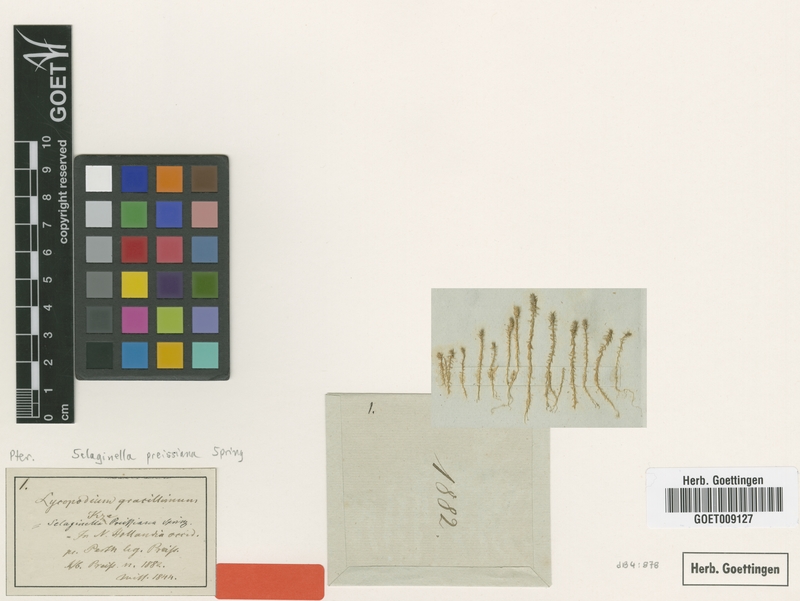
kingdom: Plantae
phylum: Tracheophyta
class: Lycopodiopsida
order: Selaginellales
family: Selaginellaceae
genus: Selaginella
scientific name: Selaginella gracillima
